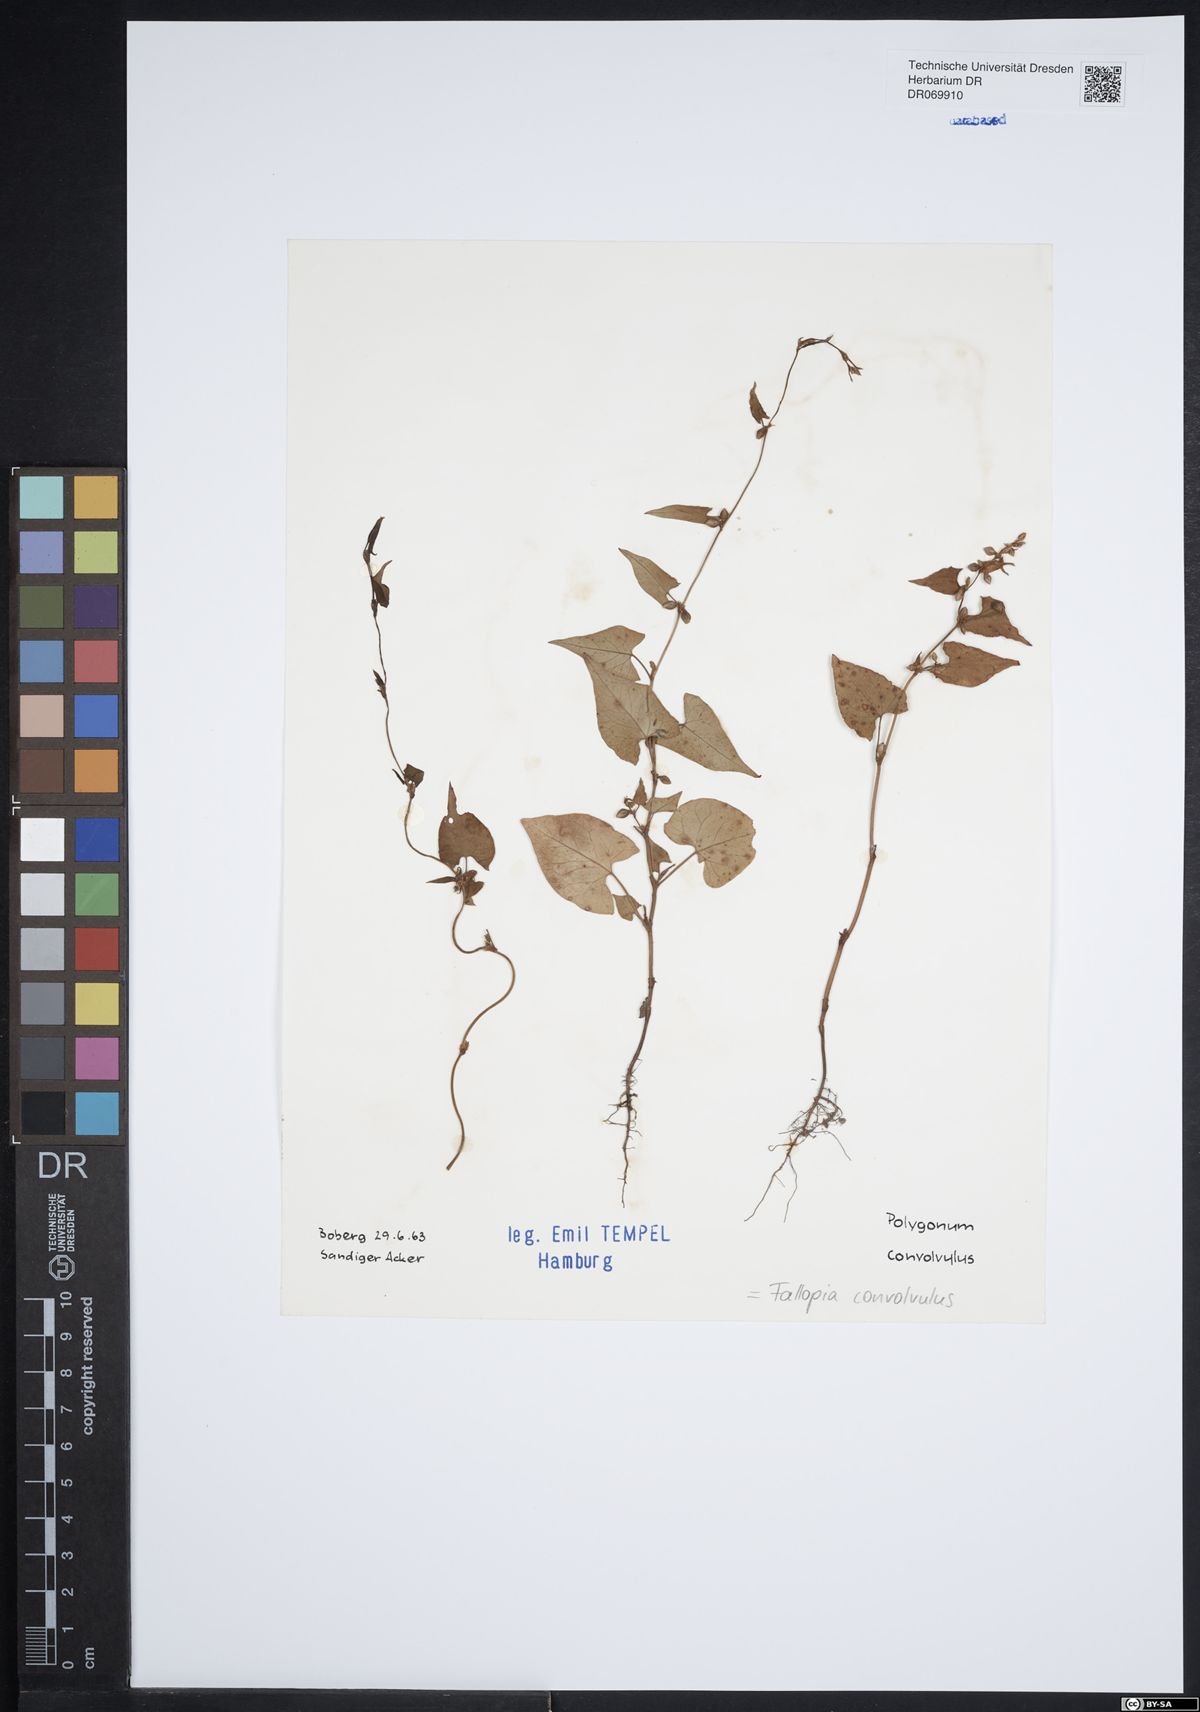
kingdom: Plantae
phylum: Tracheophyta
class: Magnoliopsida
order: Caryophyllales
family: Polygonaceae
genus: Fallopia
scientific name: Fallopia convolvulus
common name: Black bindweed
